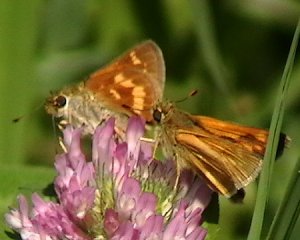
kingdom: Animalia
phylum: Arthropoda
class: Insecta
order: Lepidoptera
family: Hesperiidae
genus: Polites
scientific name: Polites
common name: Long Dash Skipper
